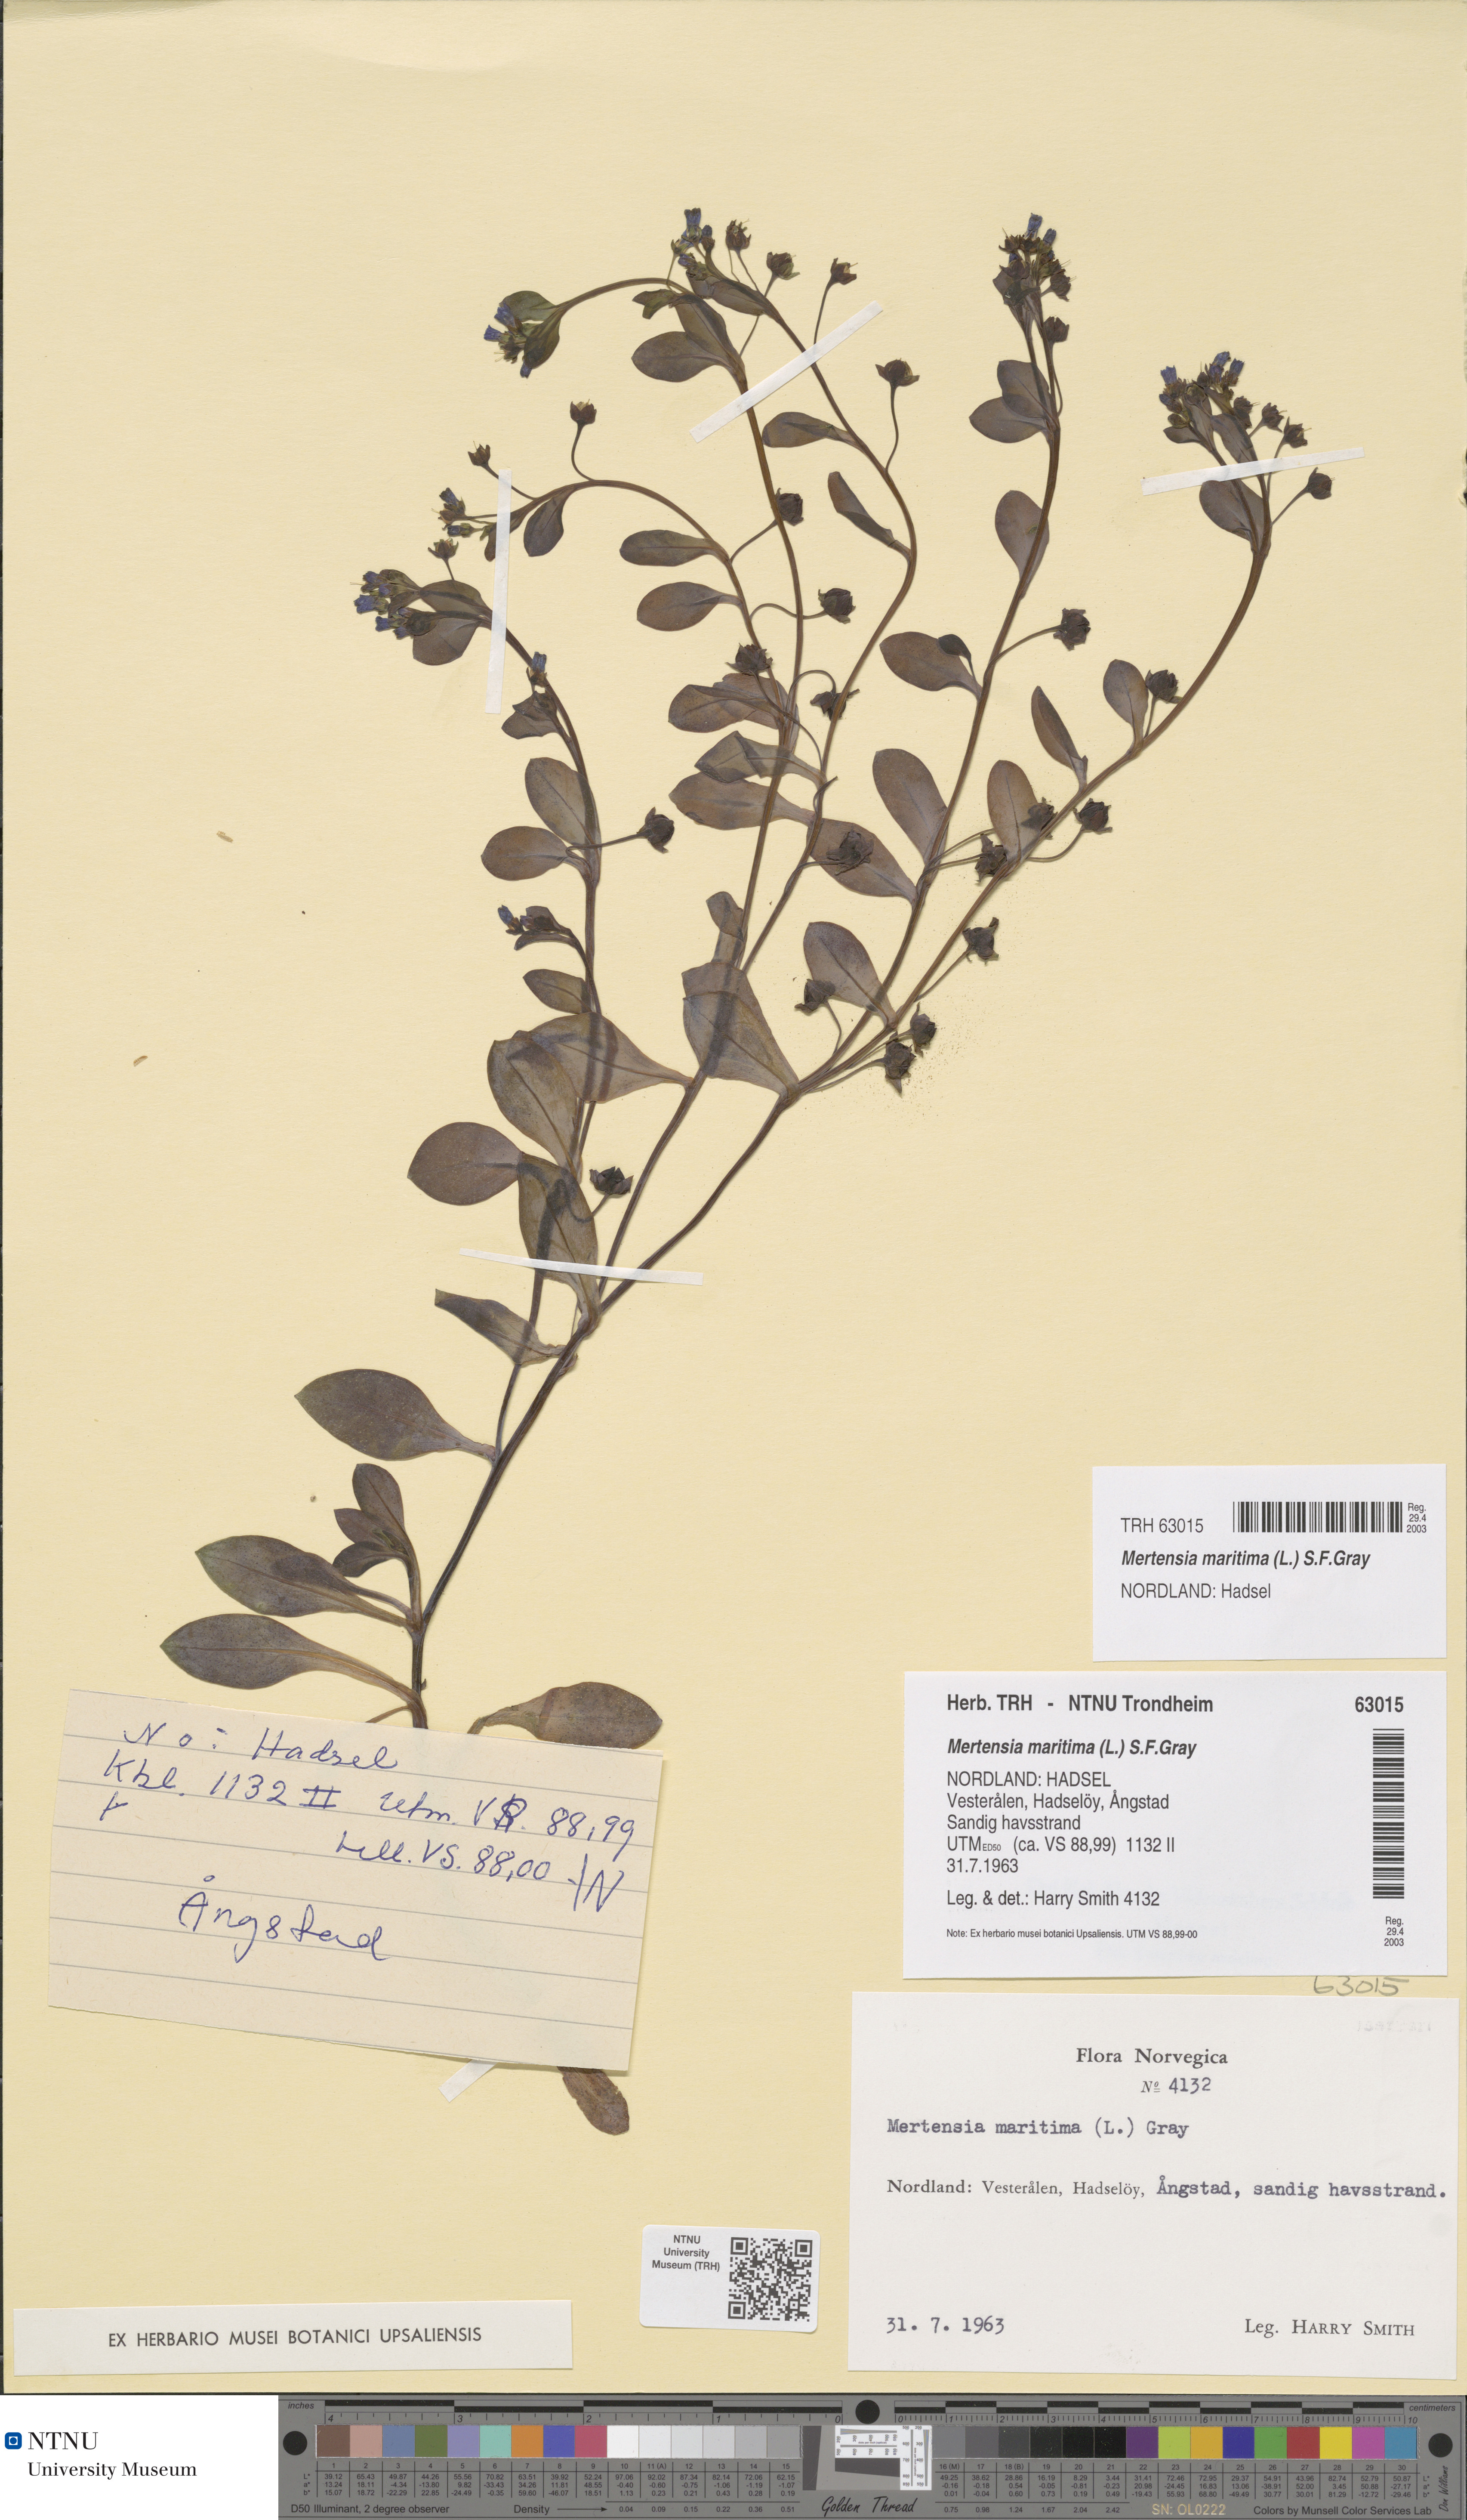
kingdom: Plantae
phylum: Tracheophyta
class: Magnoliopsida
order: Boraginales
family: Boraginaceae
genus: Mertensia
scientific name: Mertensia maritima
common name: Oysterplant
